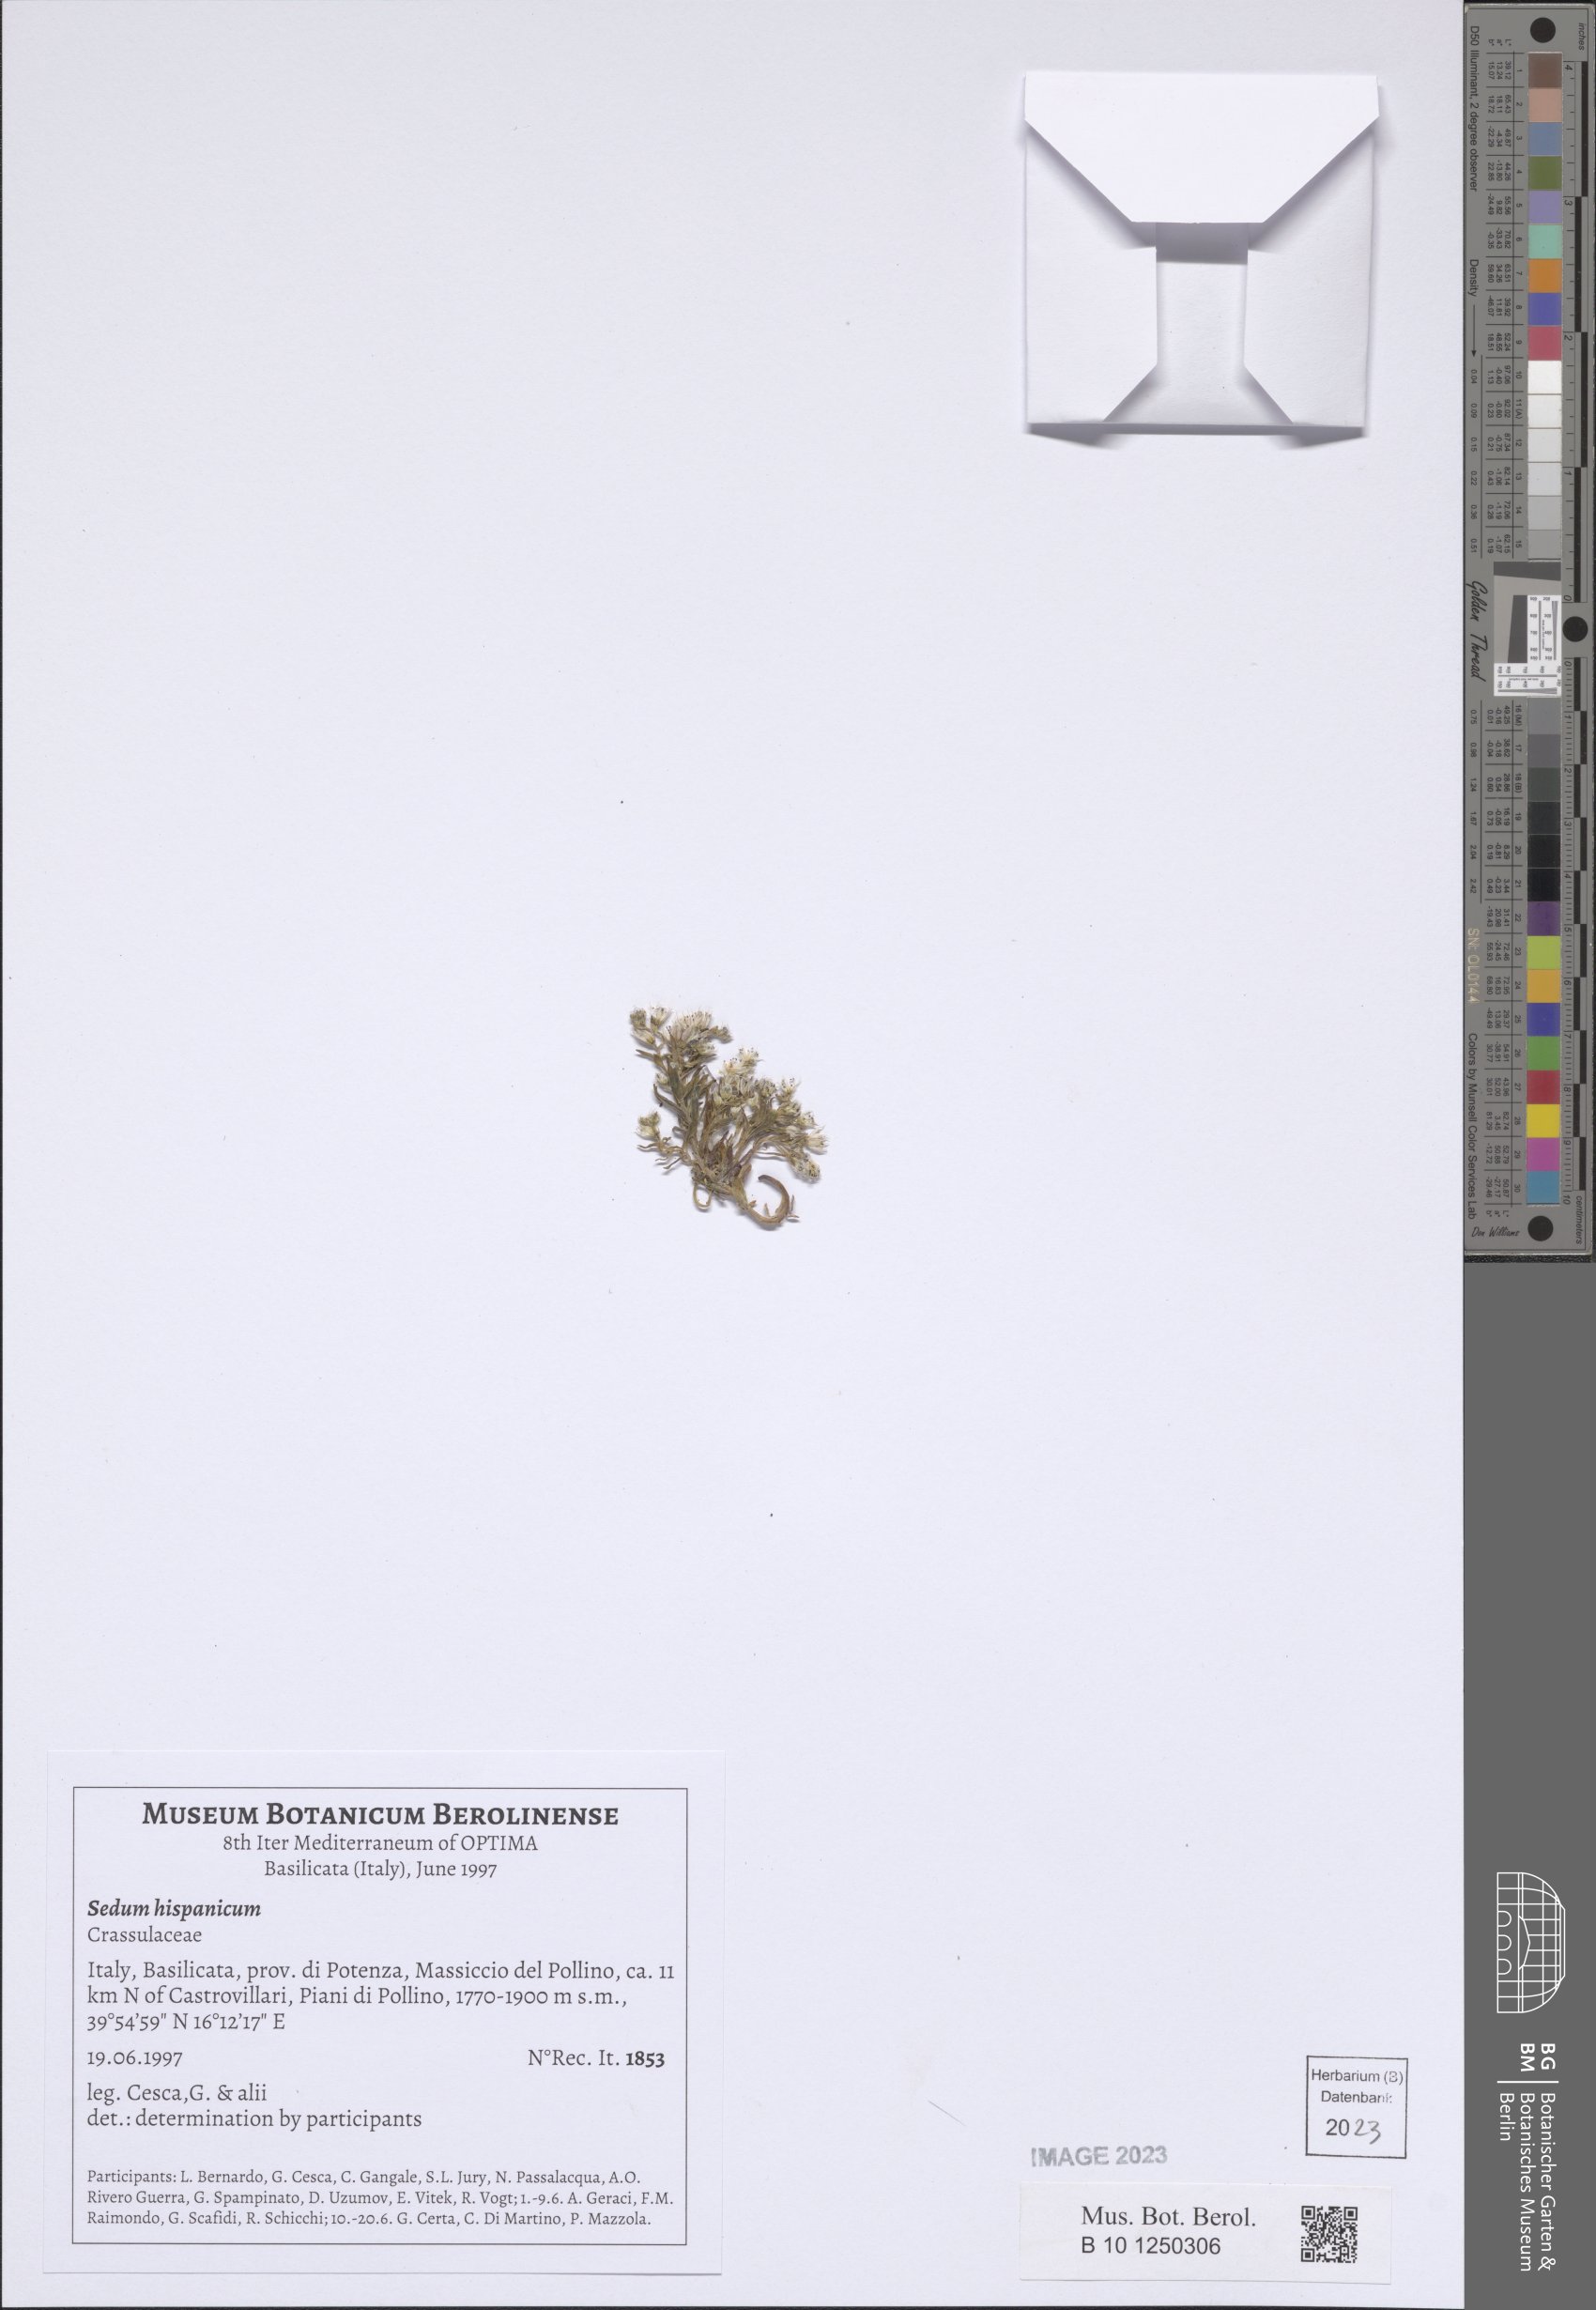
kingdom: Plantae
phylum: Tracheophyta
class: Magnoliopsida
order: Saxifragales
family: Crassulaceae
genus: Sedum
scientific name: Sedum hispanicum
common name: Spanish stonecrop
